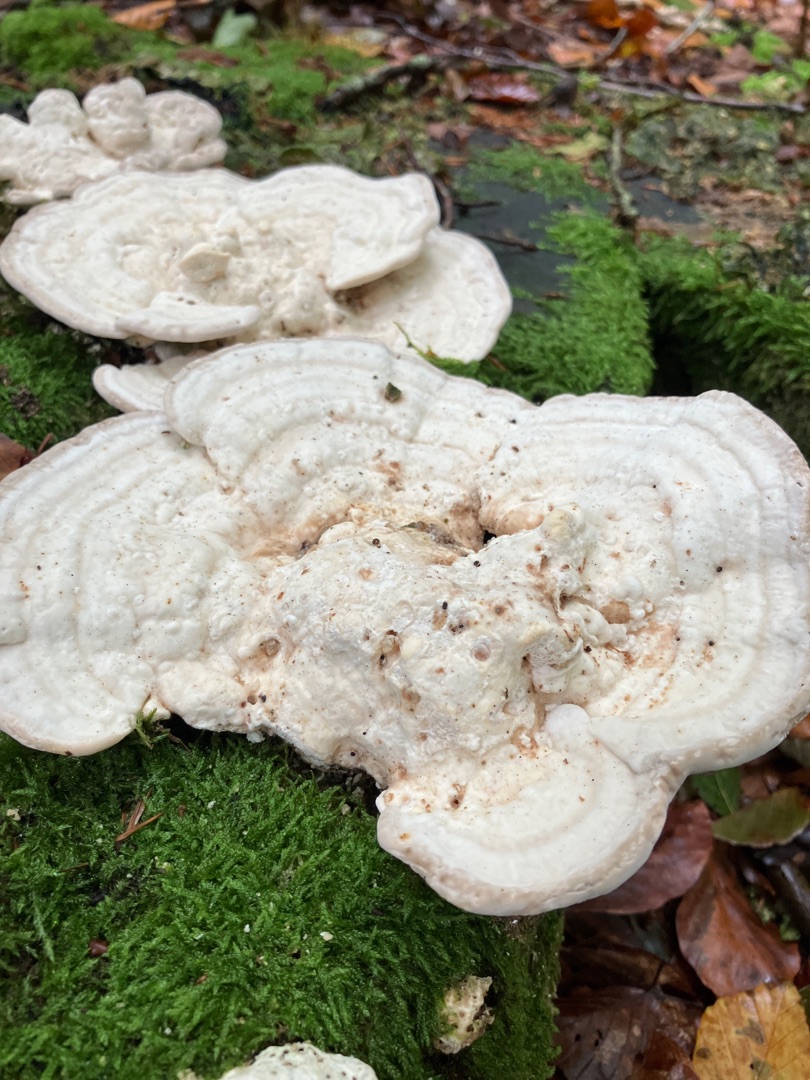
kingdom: Fungi
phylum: Basidiomycota
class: Agaricomycetes
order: Polyporales
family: Polyporaceae
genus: Trametes
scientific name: Trametes gibbosa
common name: Puklet læderporesvamp
